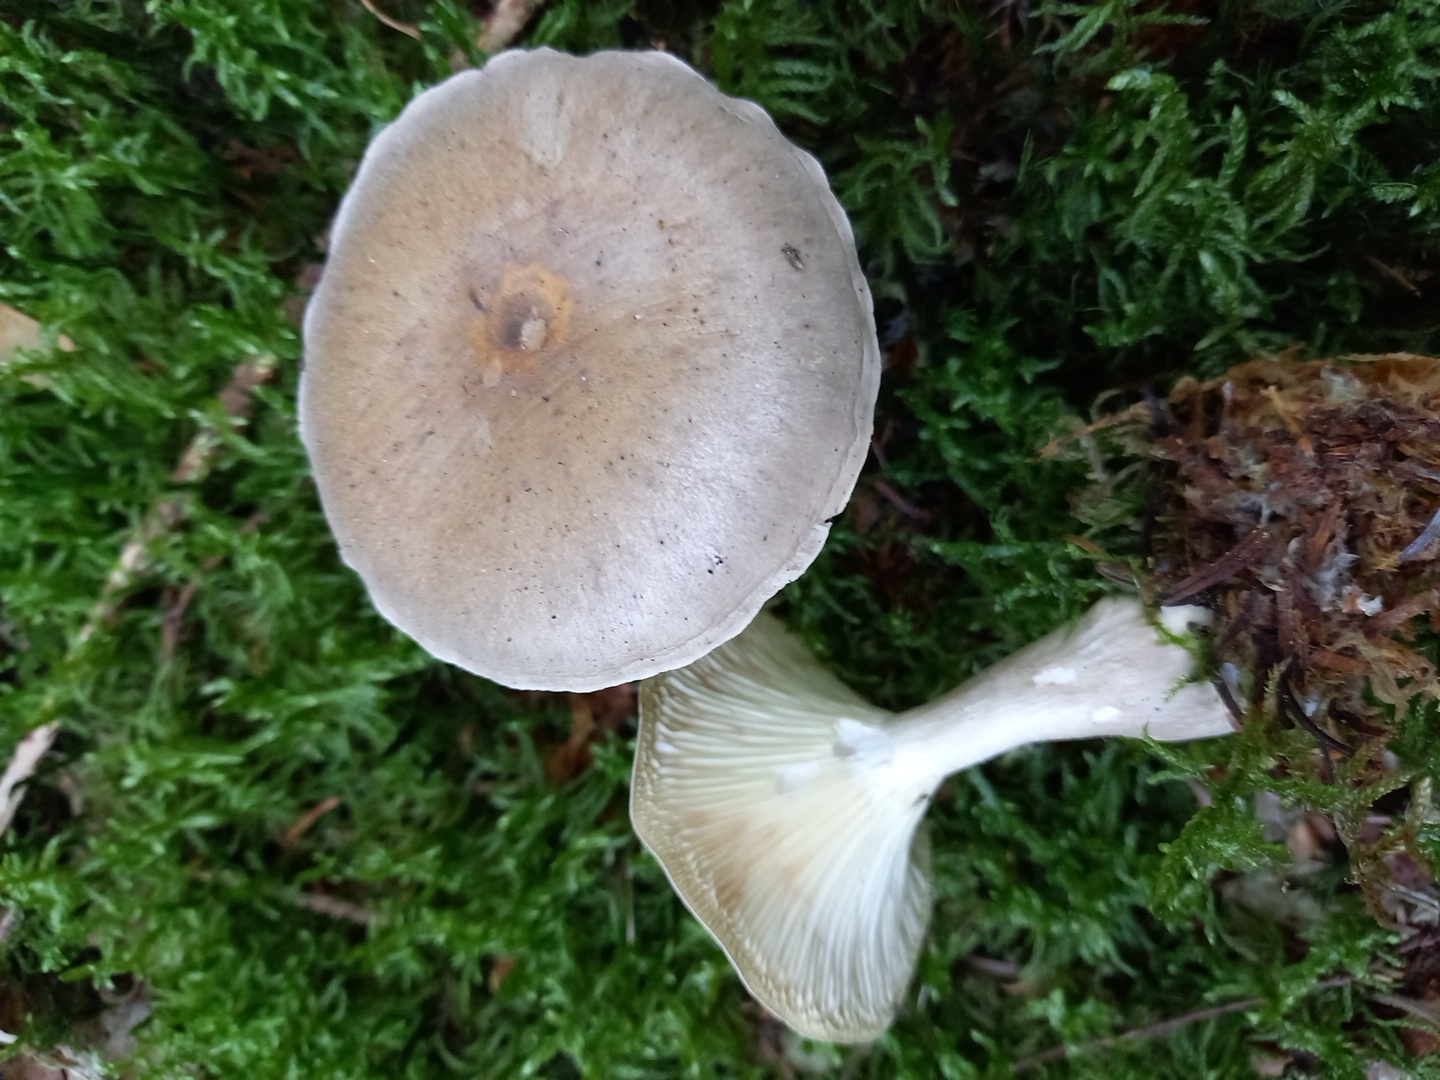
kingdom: Fungi
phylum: Basidiomycota
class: Agaricomycetes
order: Agaricales
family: Hygrophoraceae
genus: Ampulloclitocybe
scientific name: Ampulloclitocybe clavipes
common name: køllefod
